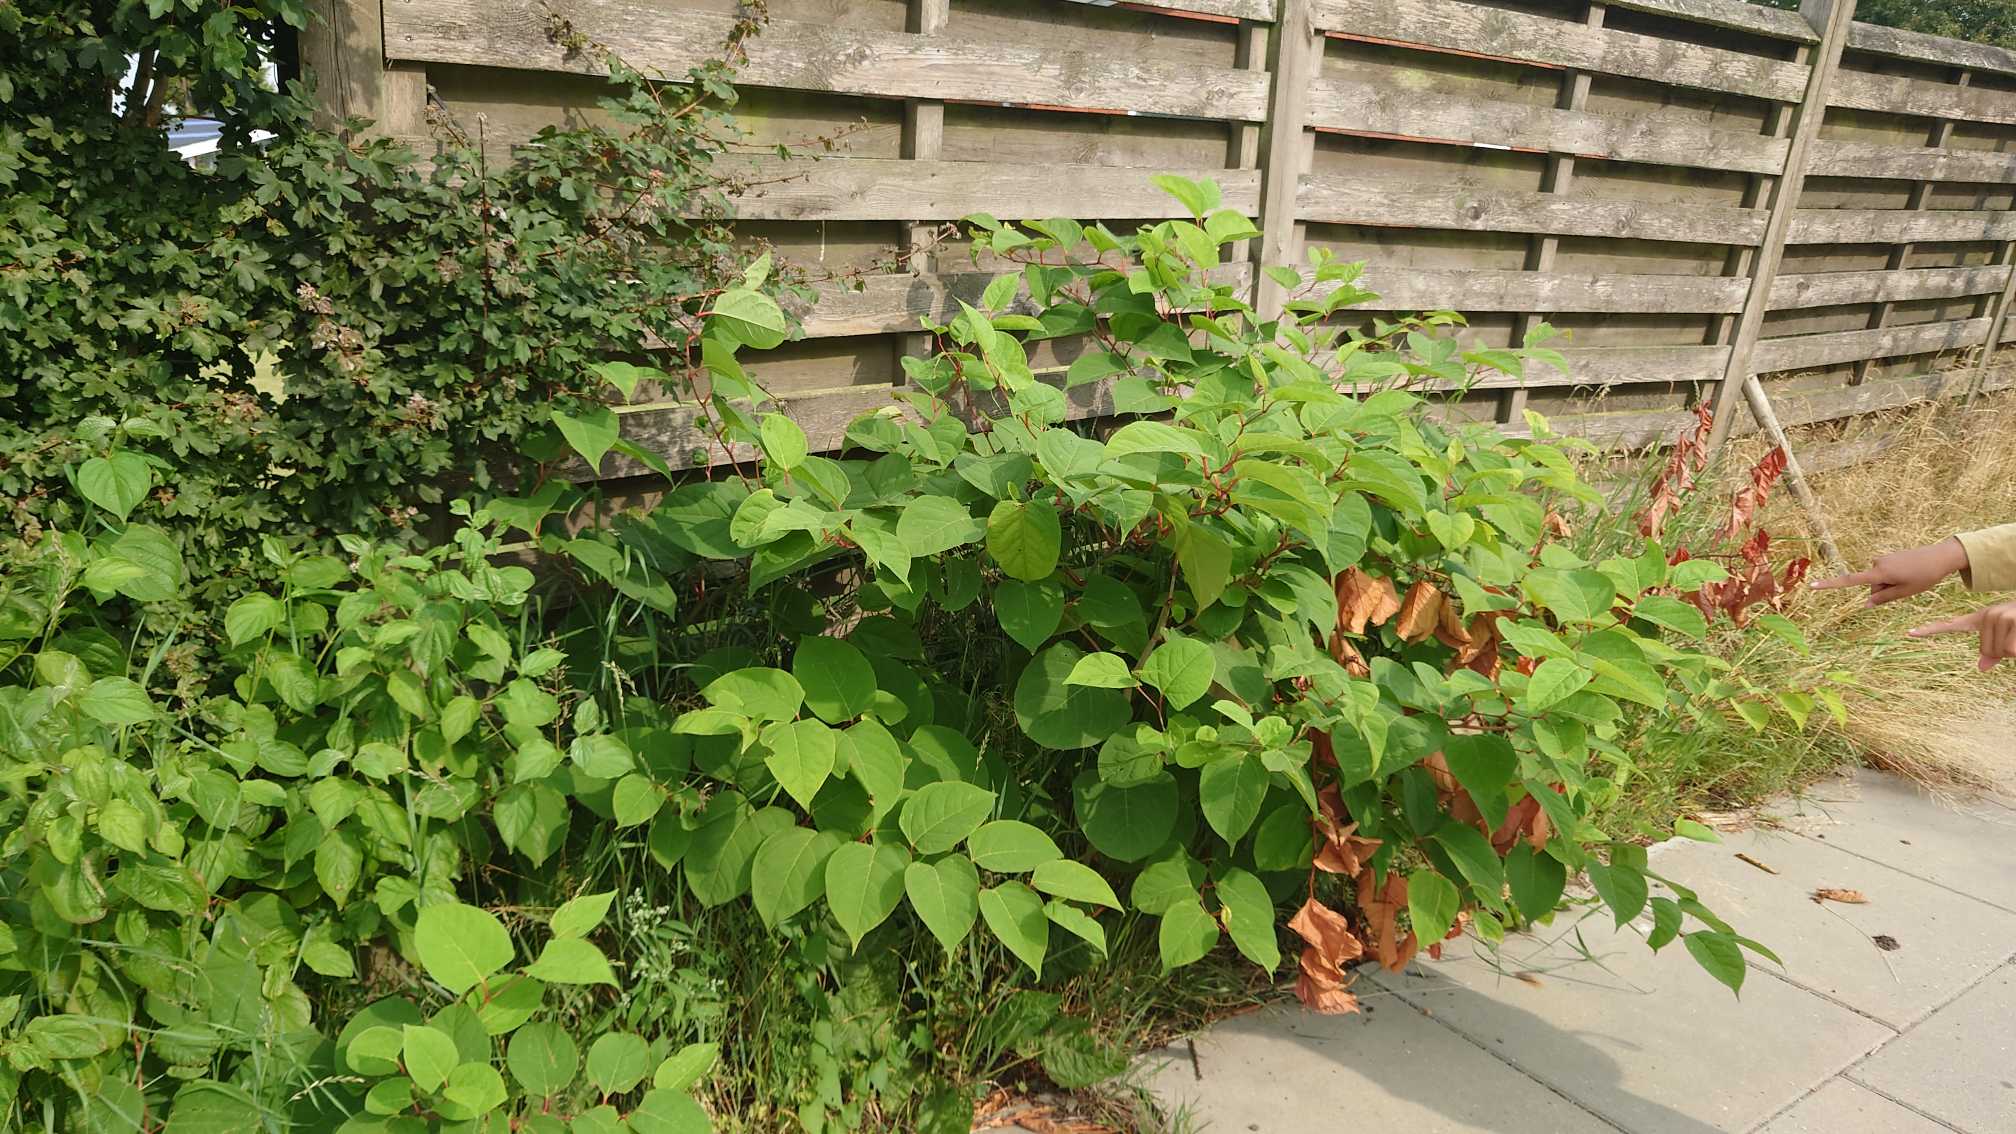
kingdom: Plantae
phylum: Tracheophyta
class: Magnoliopsida
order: Caryophyllales
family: Polygonaceae
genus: Reynoutria
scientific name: Reynoutria japonica
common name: Japan-pileurt
